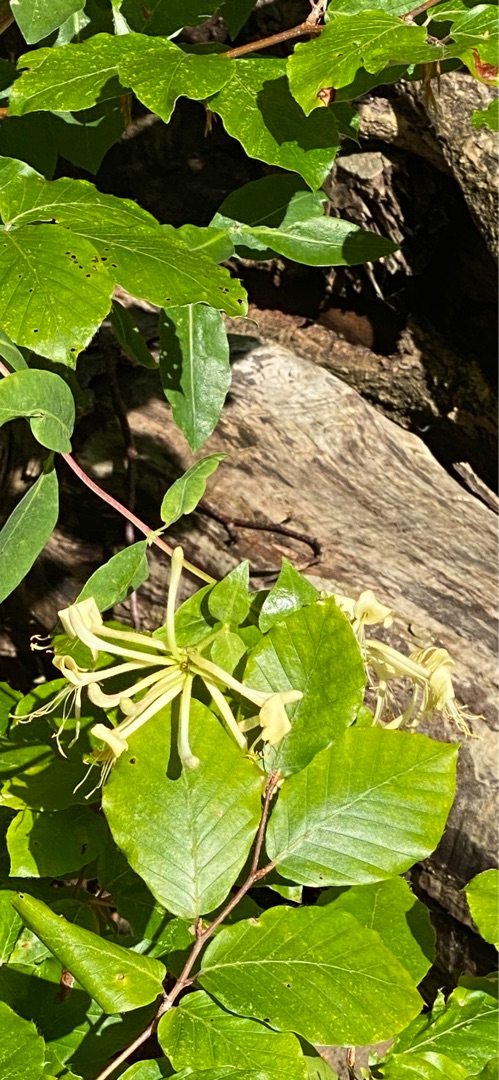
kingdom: Plantae
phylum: Tracheophyta
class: Magnoliopsida
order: Dipsacales
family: Caprifoliaceae
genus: Lonicera
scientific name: Lonicera periclymenum
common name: Almindelig gedeblad
